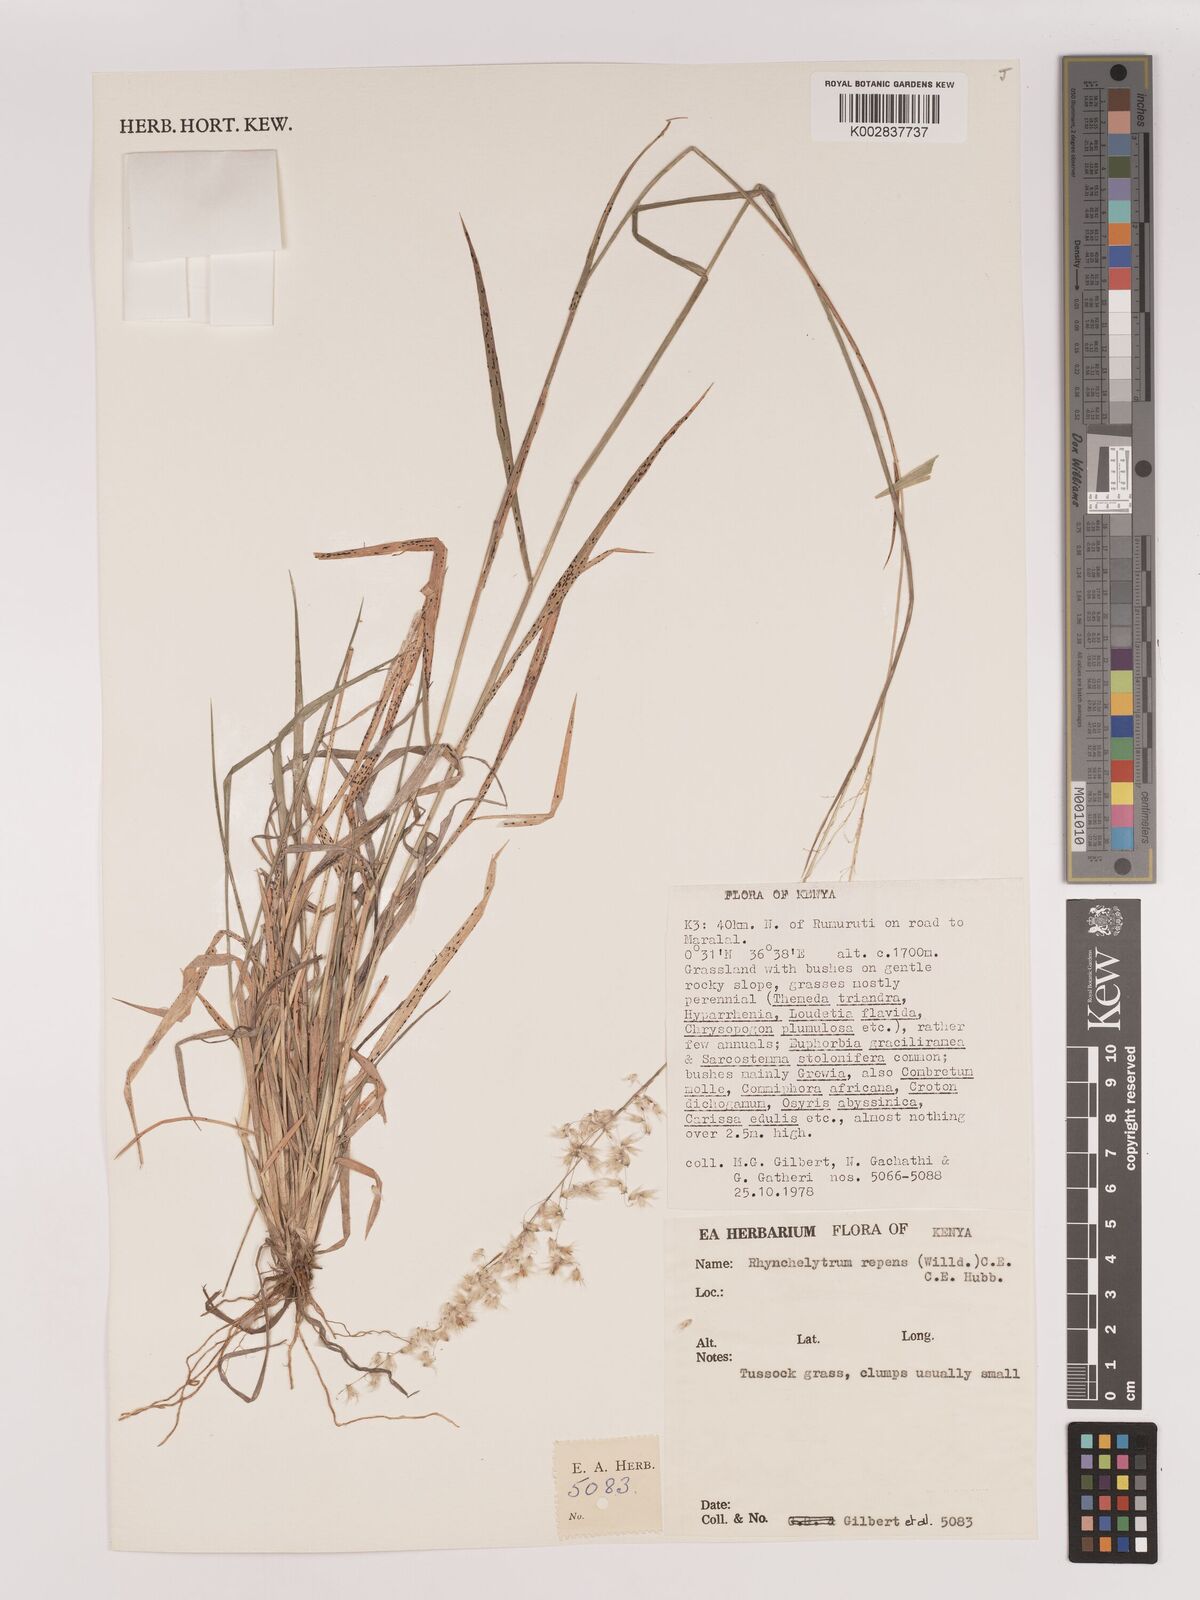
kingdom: Plantae
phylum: Tracheophyta
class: Liliopsida
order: Poales
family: Poaceae
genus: Melinis
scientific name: Melinis repens
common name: Rose natal grass
